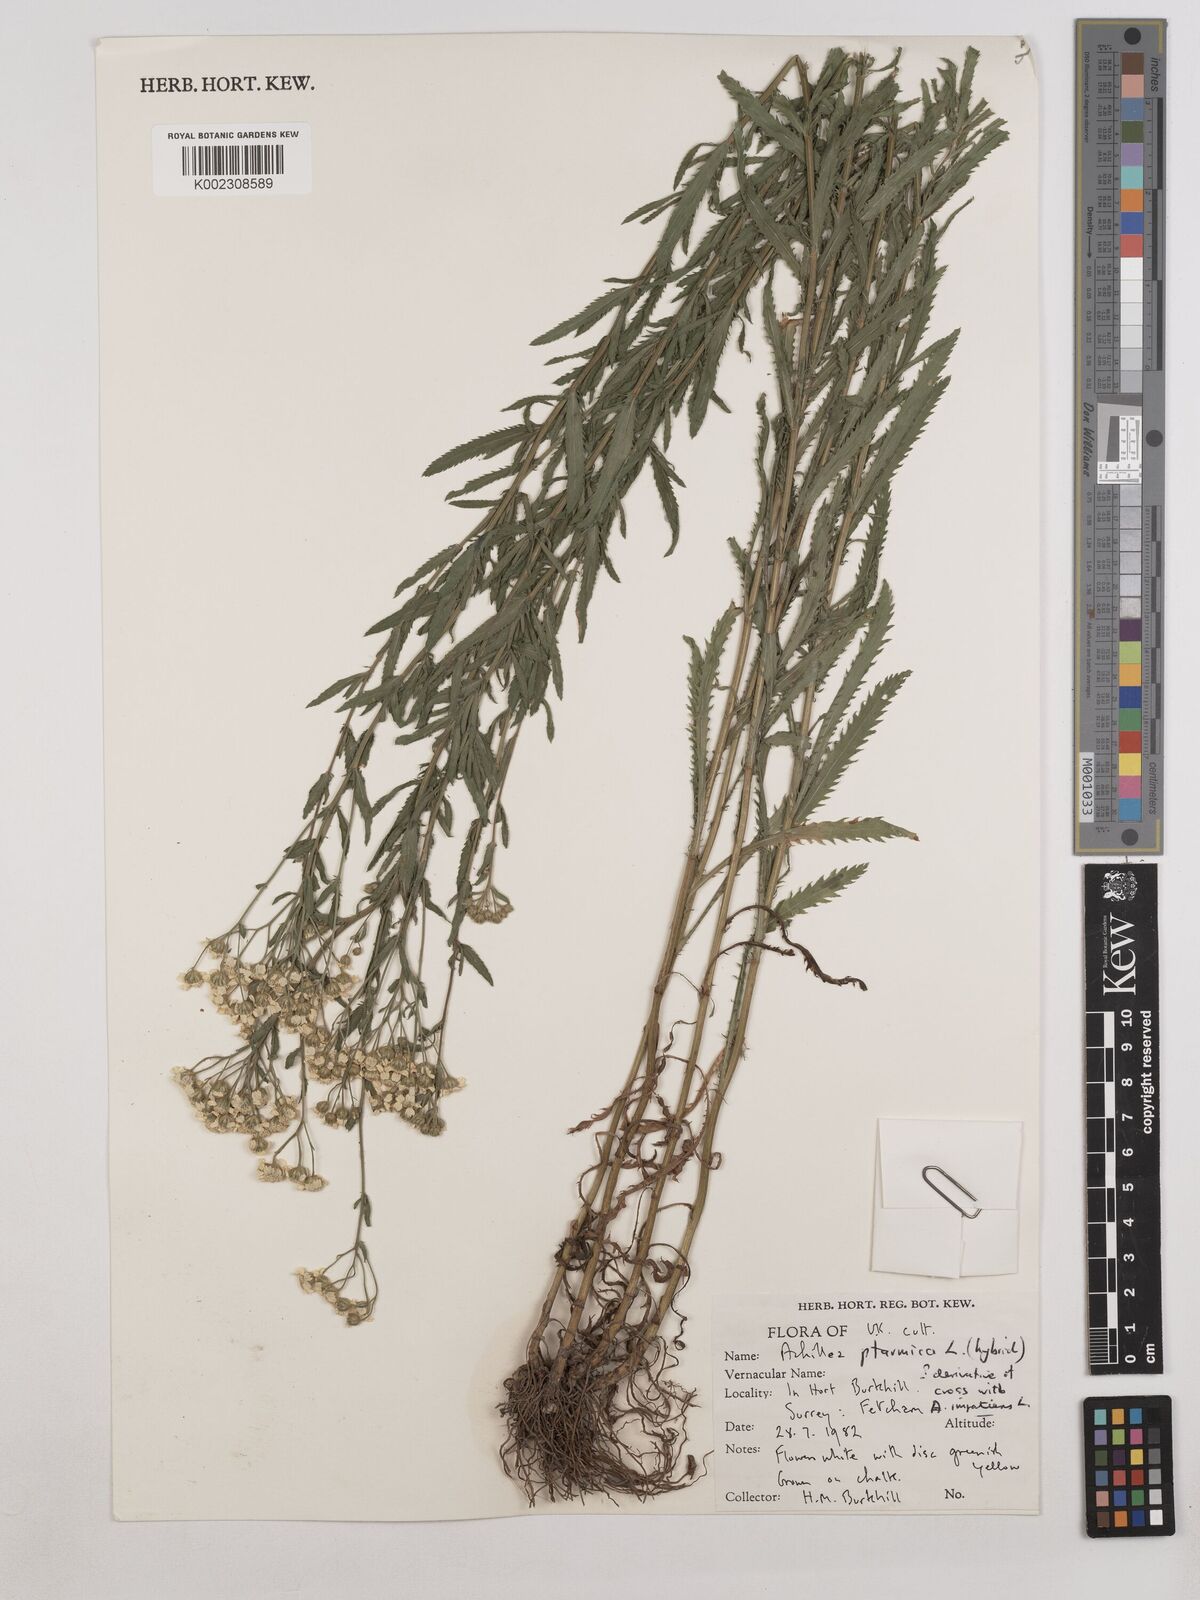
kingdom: Plantae
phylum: Tracheophyta
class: Magnoliopsida
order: Asterales
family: Asteraceae
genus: Achillea
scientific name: Achillea ptarmica
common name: Sneezeweed
